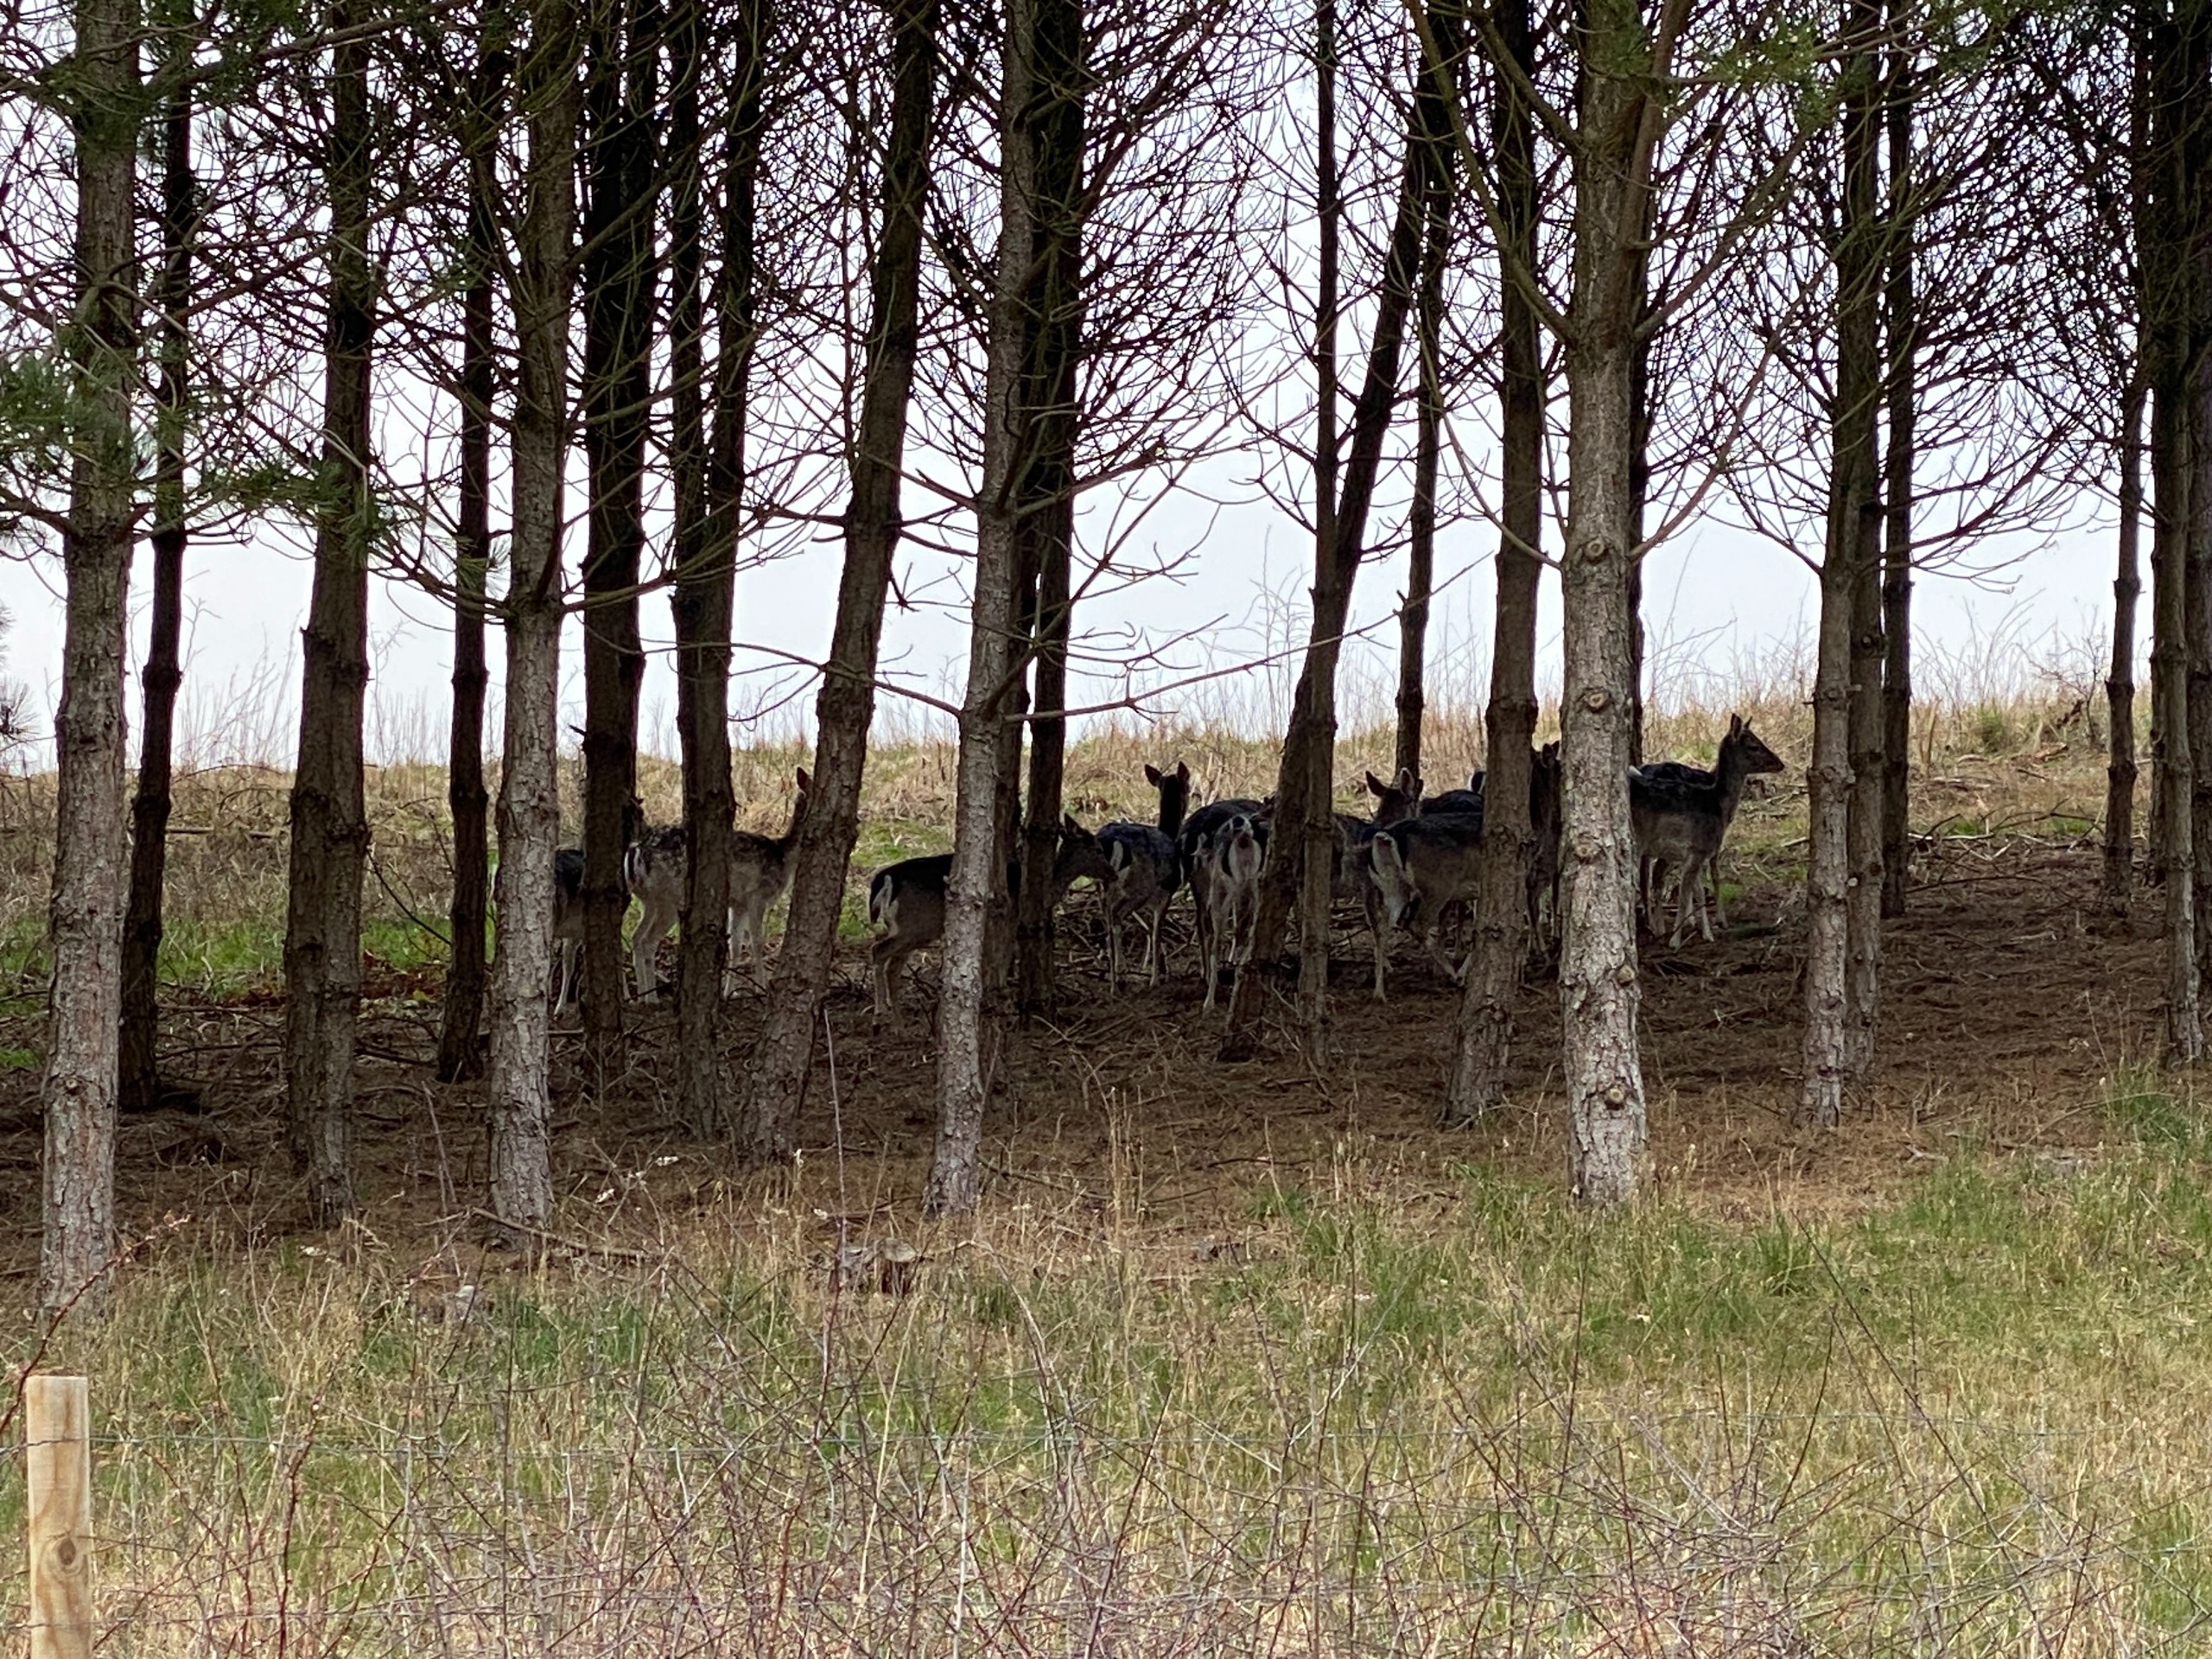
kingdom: Animalia
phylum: Chordata
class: Mammalia
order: Artiodactyla
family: Cervidae
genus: Dama
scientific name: Dama dama
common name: Dådyr
